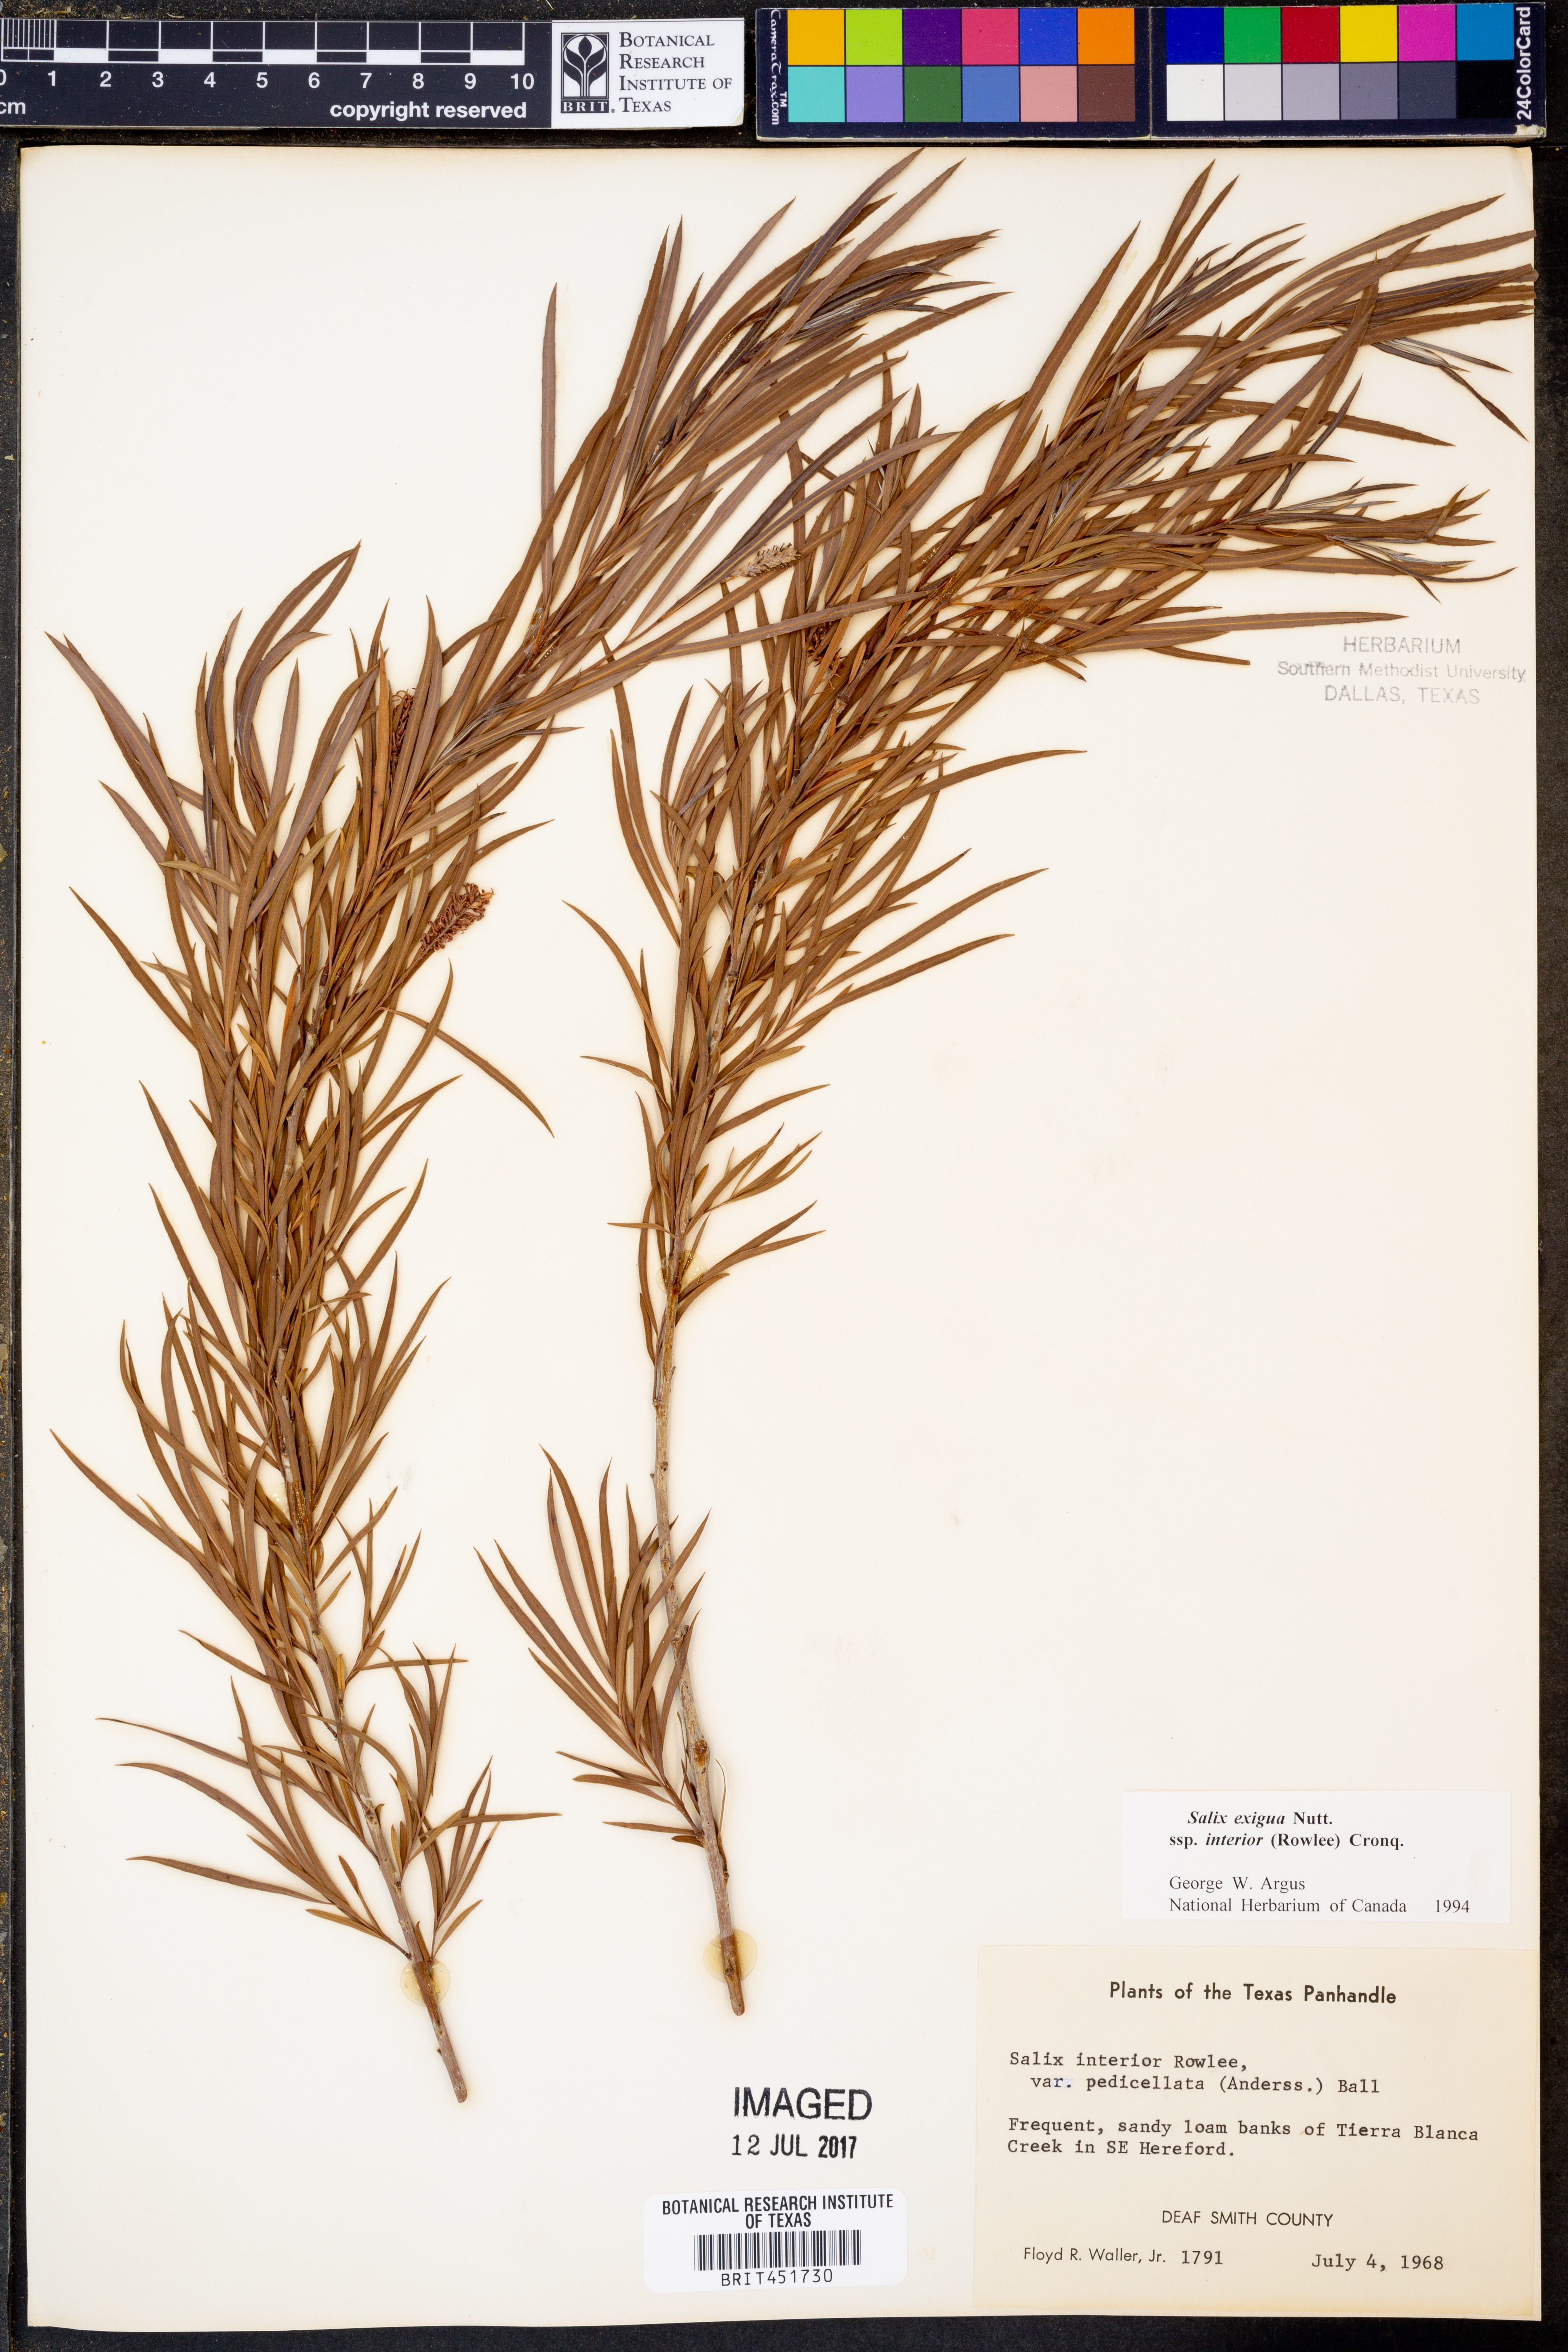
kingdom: Plantae
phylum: Tracheophyta
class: Magnoliopsida
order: Malpighiales
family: Salicaceae
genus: Salix
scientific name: Salix interior
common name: Sandbar willow
